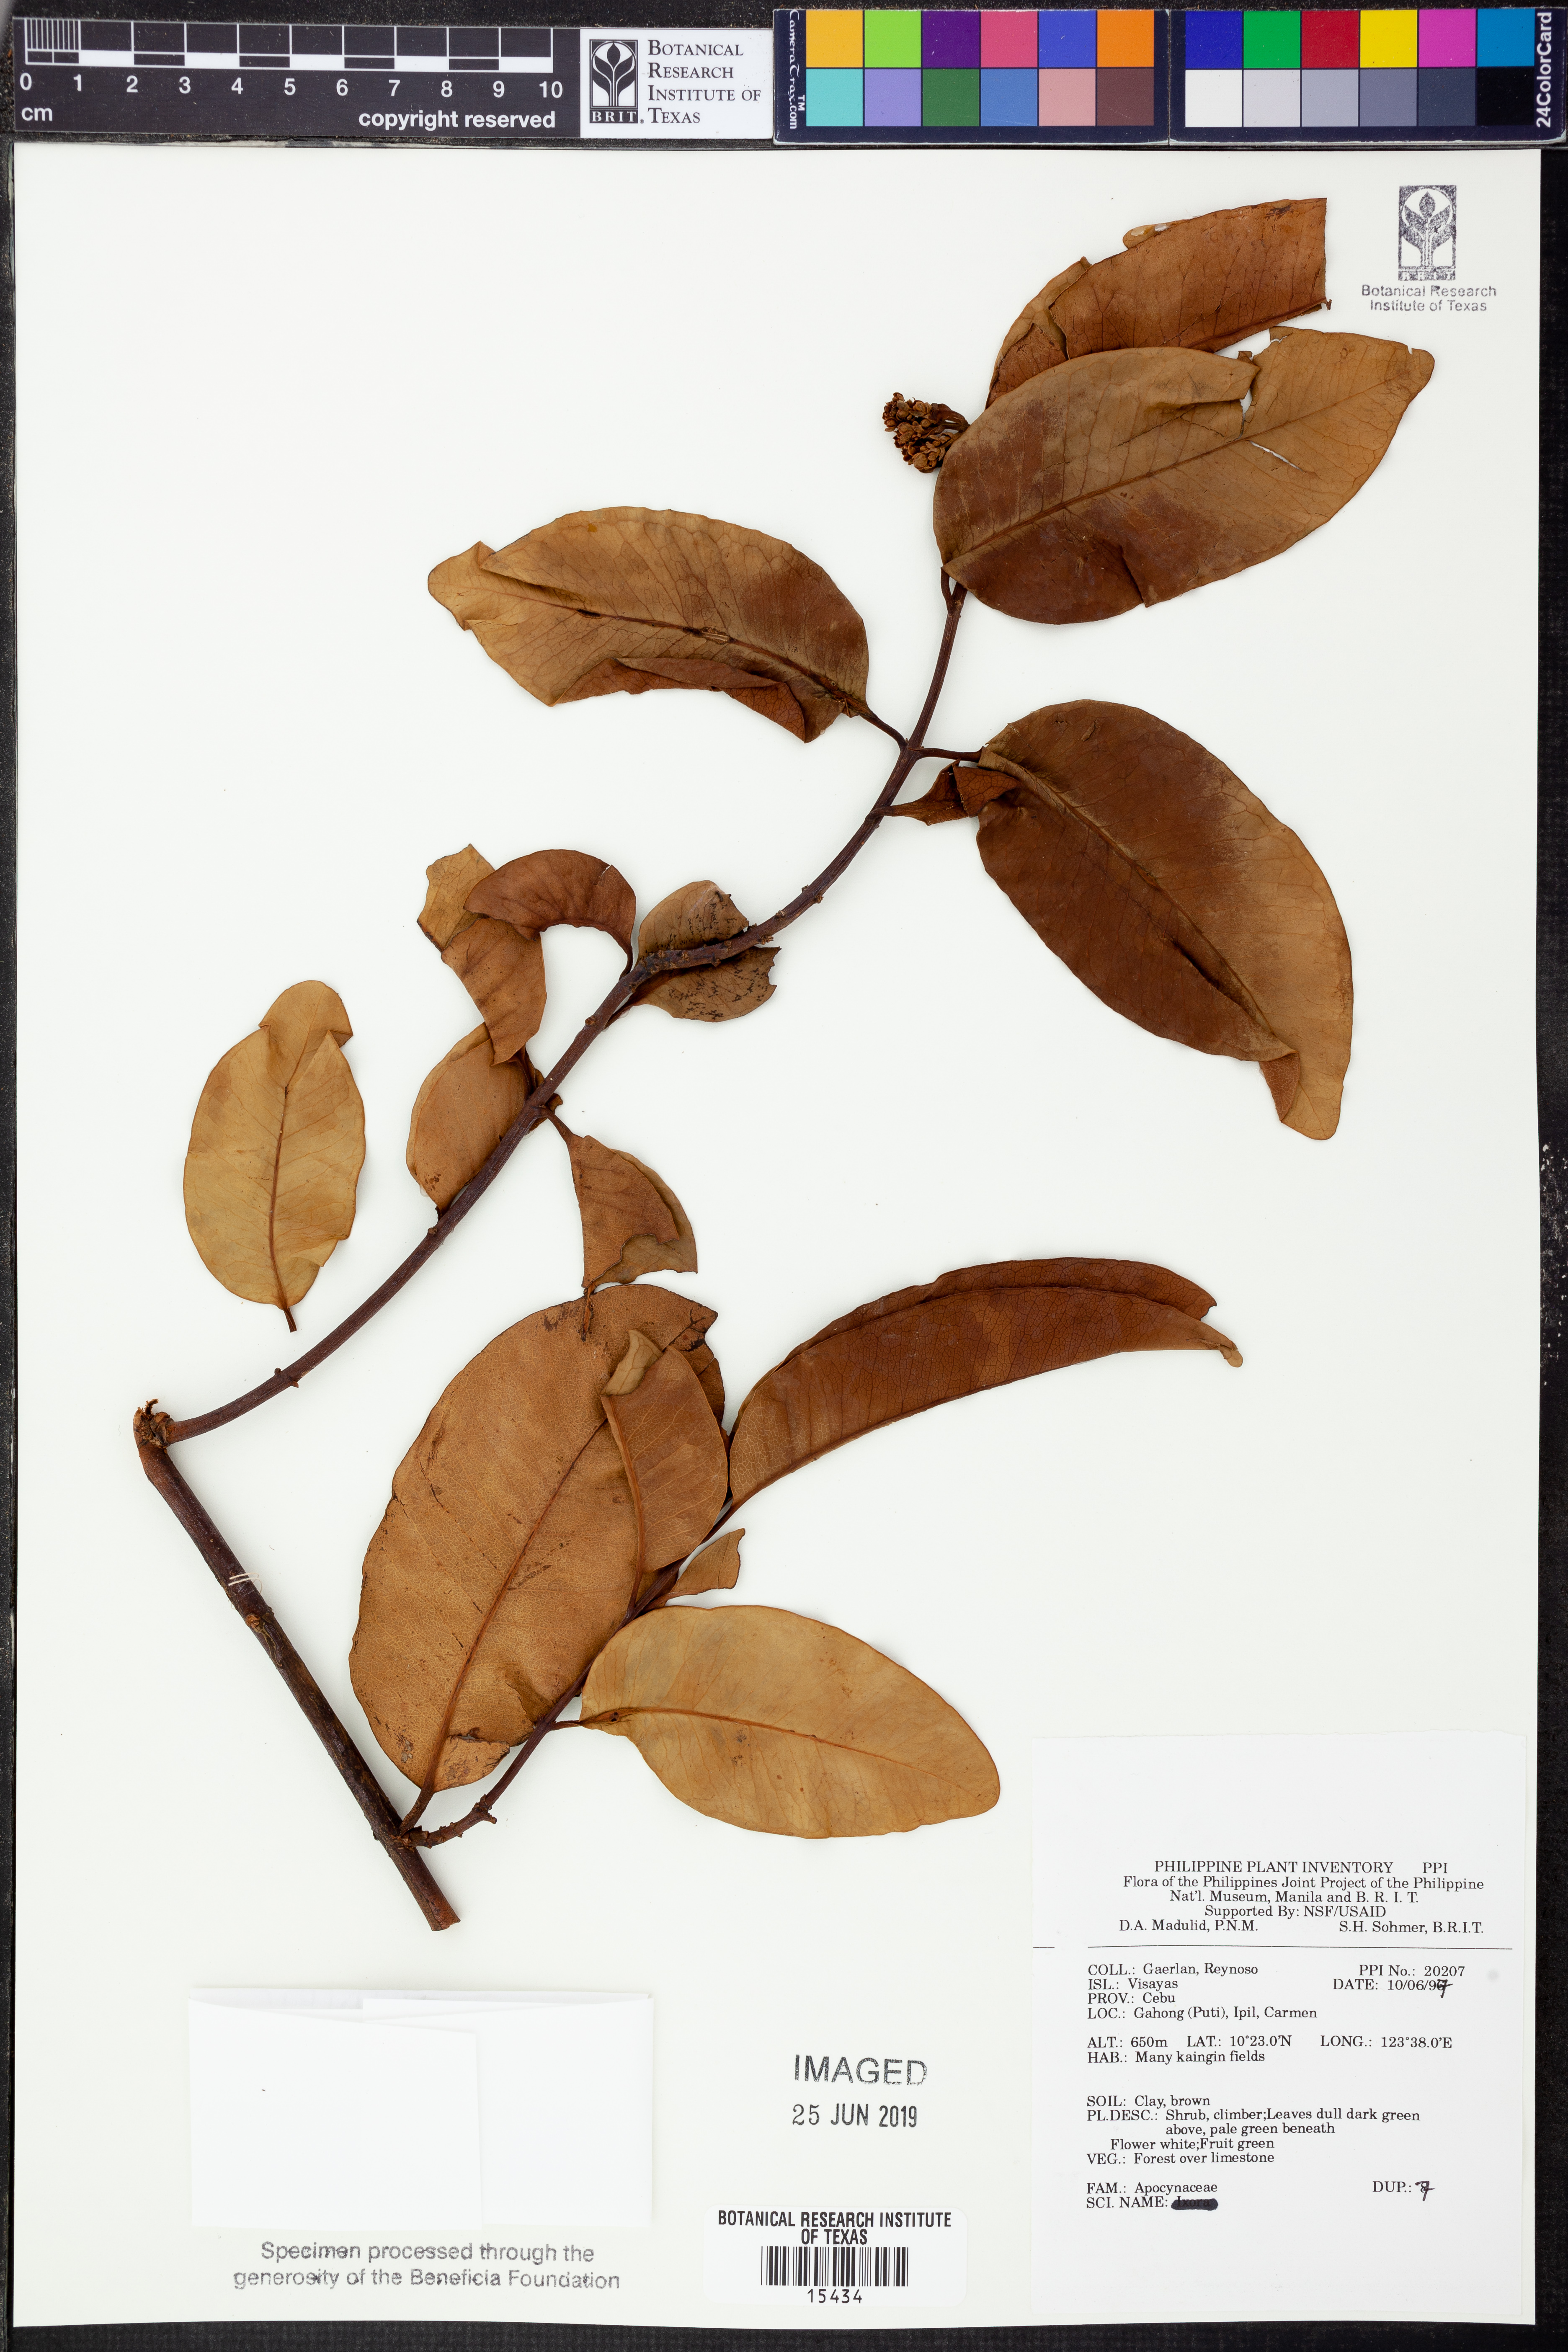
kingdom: Plantae
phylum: Tracheophyta
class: Magnoliopsida
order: Gentianales
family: Apocynaceae
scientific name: Apocynaceae
